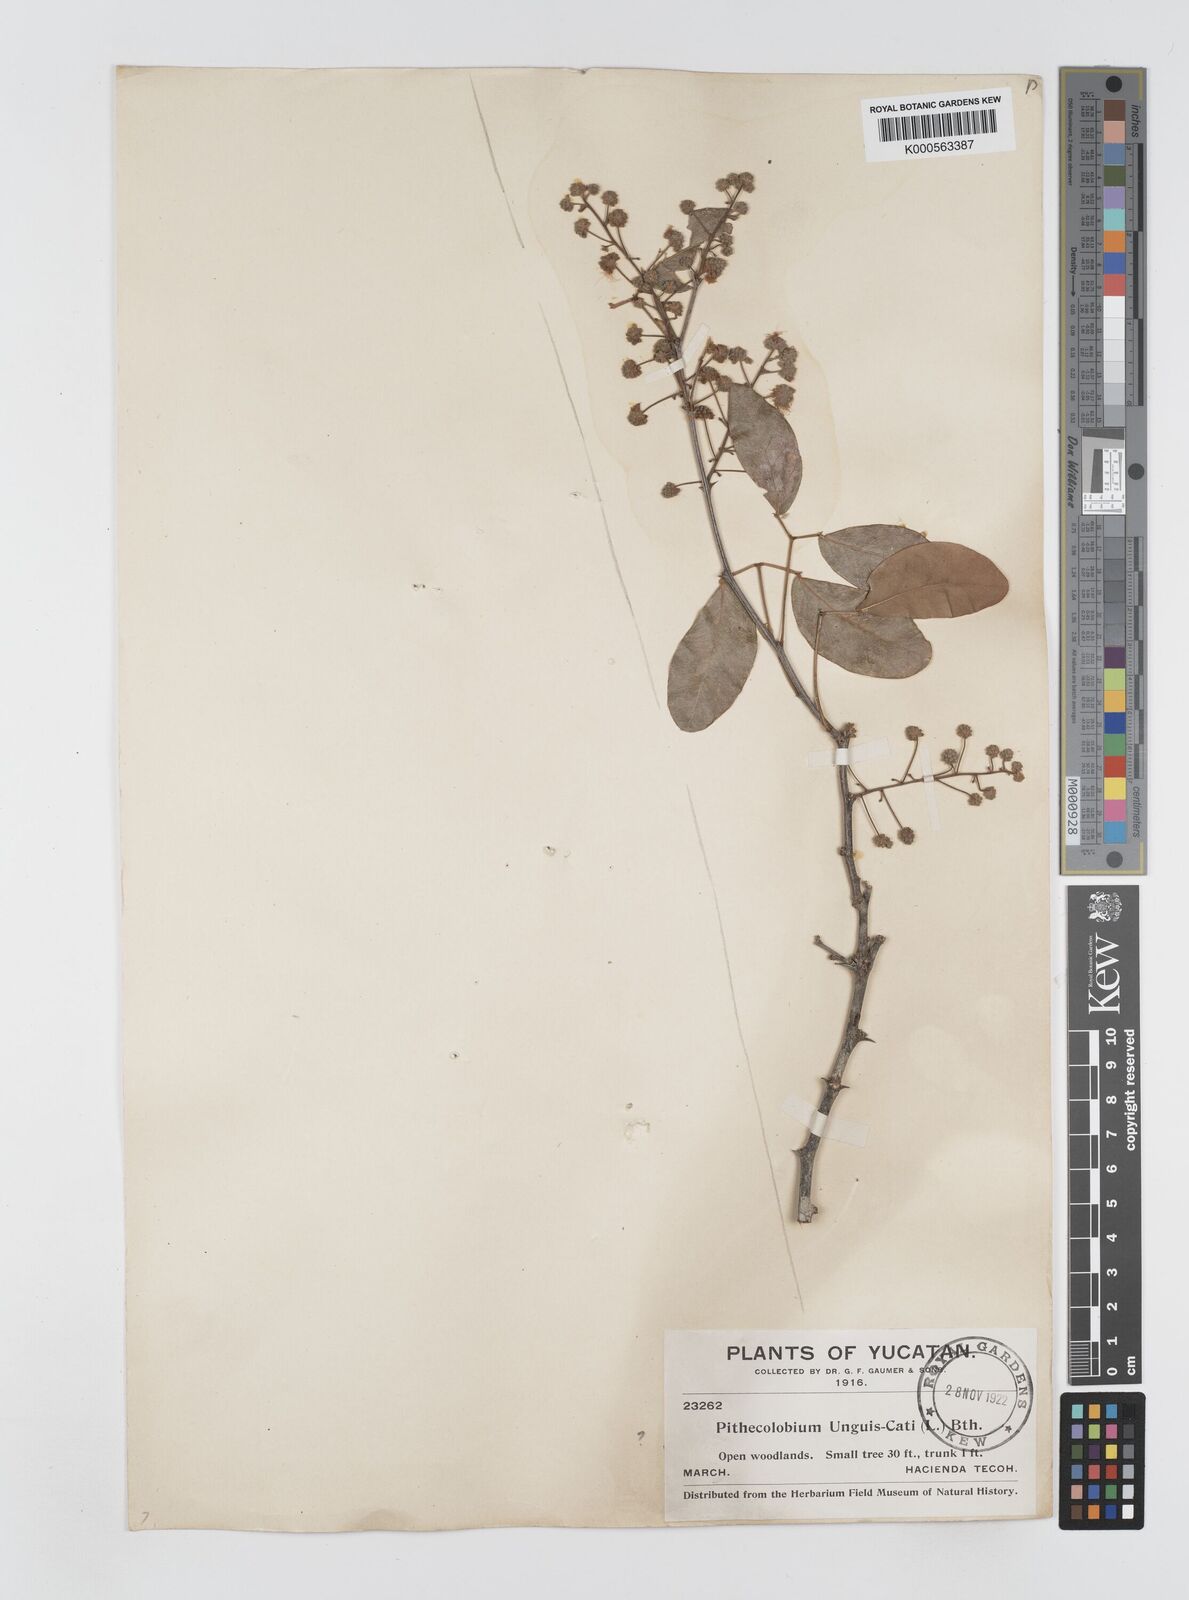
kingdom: Plantae
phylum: Tracheophyta
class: Magnoliopsida
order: Fabales
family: Fabaceae
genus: Pithecellobium
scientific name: Pithecellobium unguis-cati
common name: Cat's-claw
